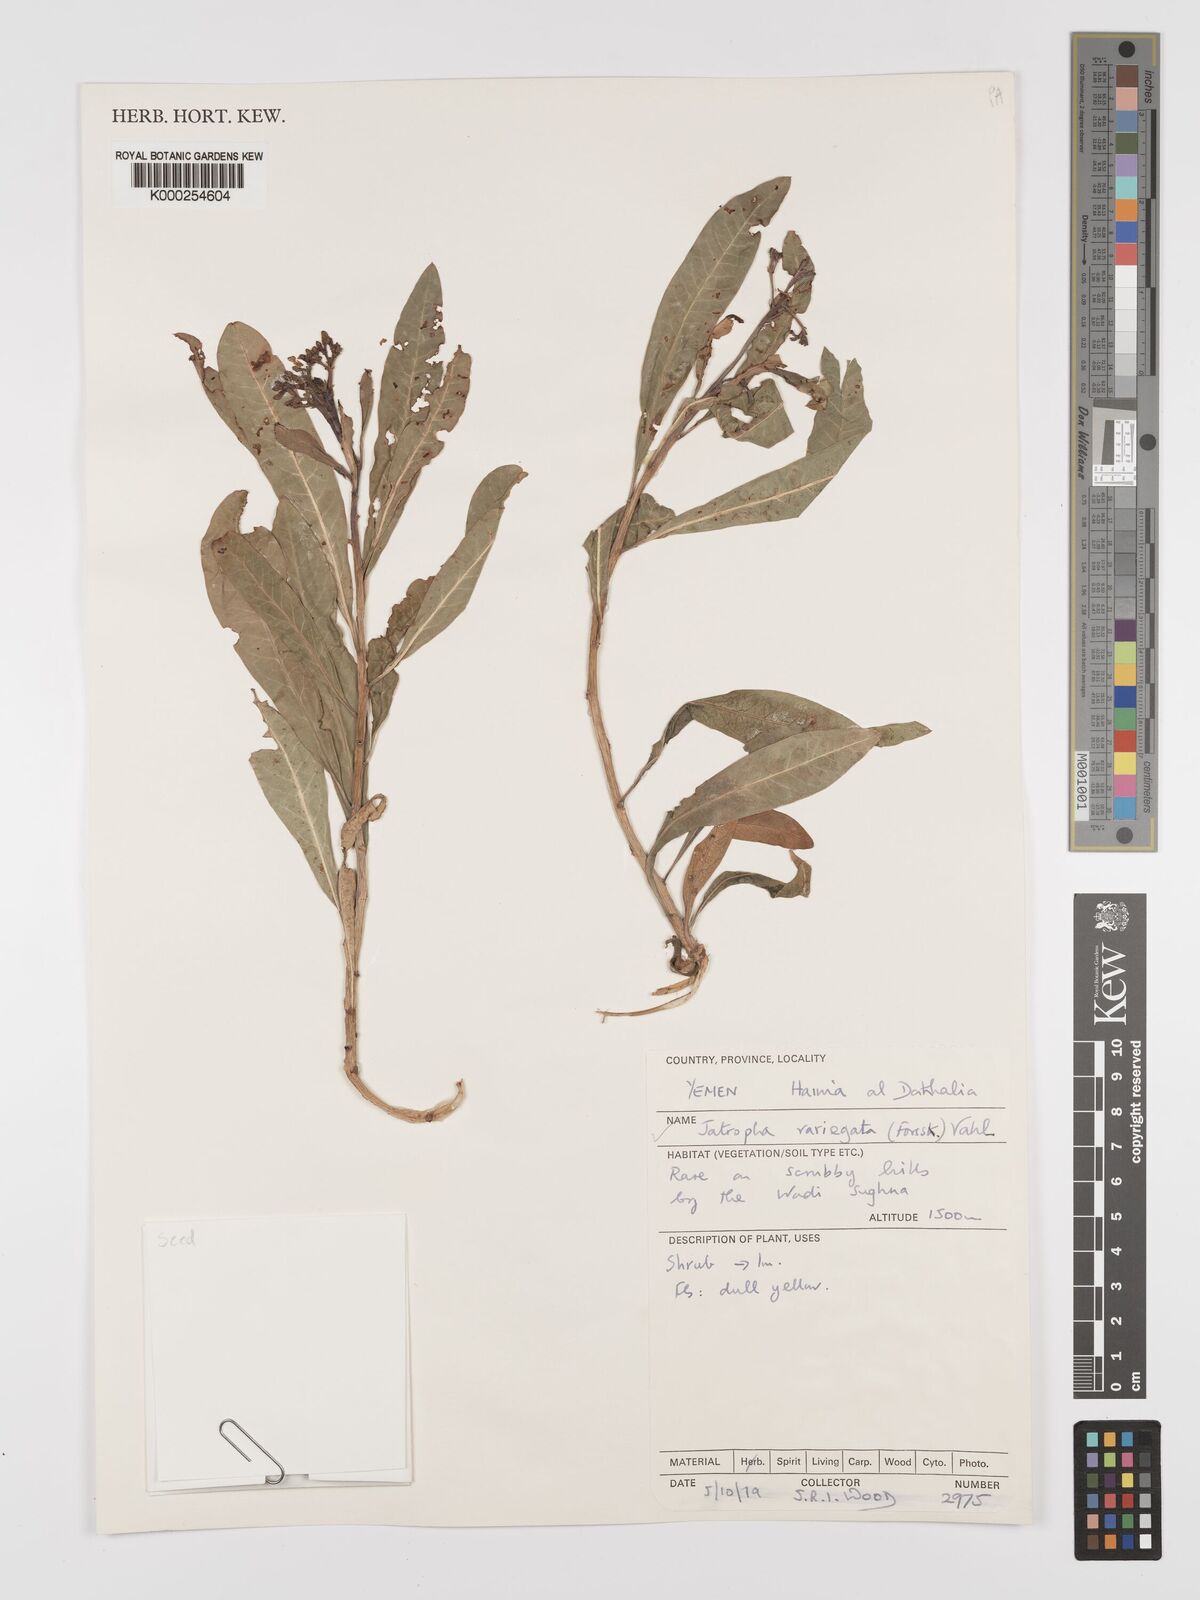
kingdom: Plantae
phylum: Tracheophyta
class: Magnoliopsida
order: Malpighiales
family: Euphorbiaceae
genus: Jatropha
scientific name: Jatropha variegata
